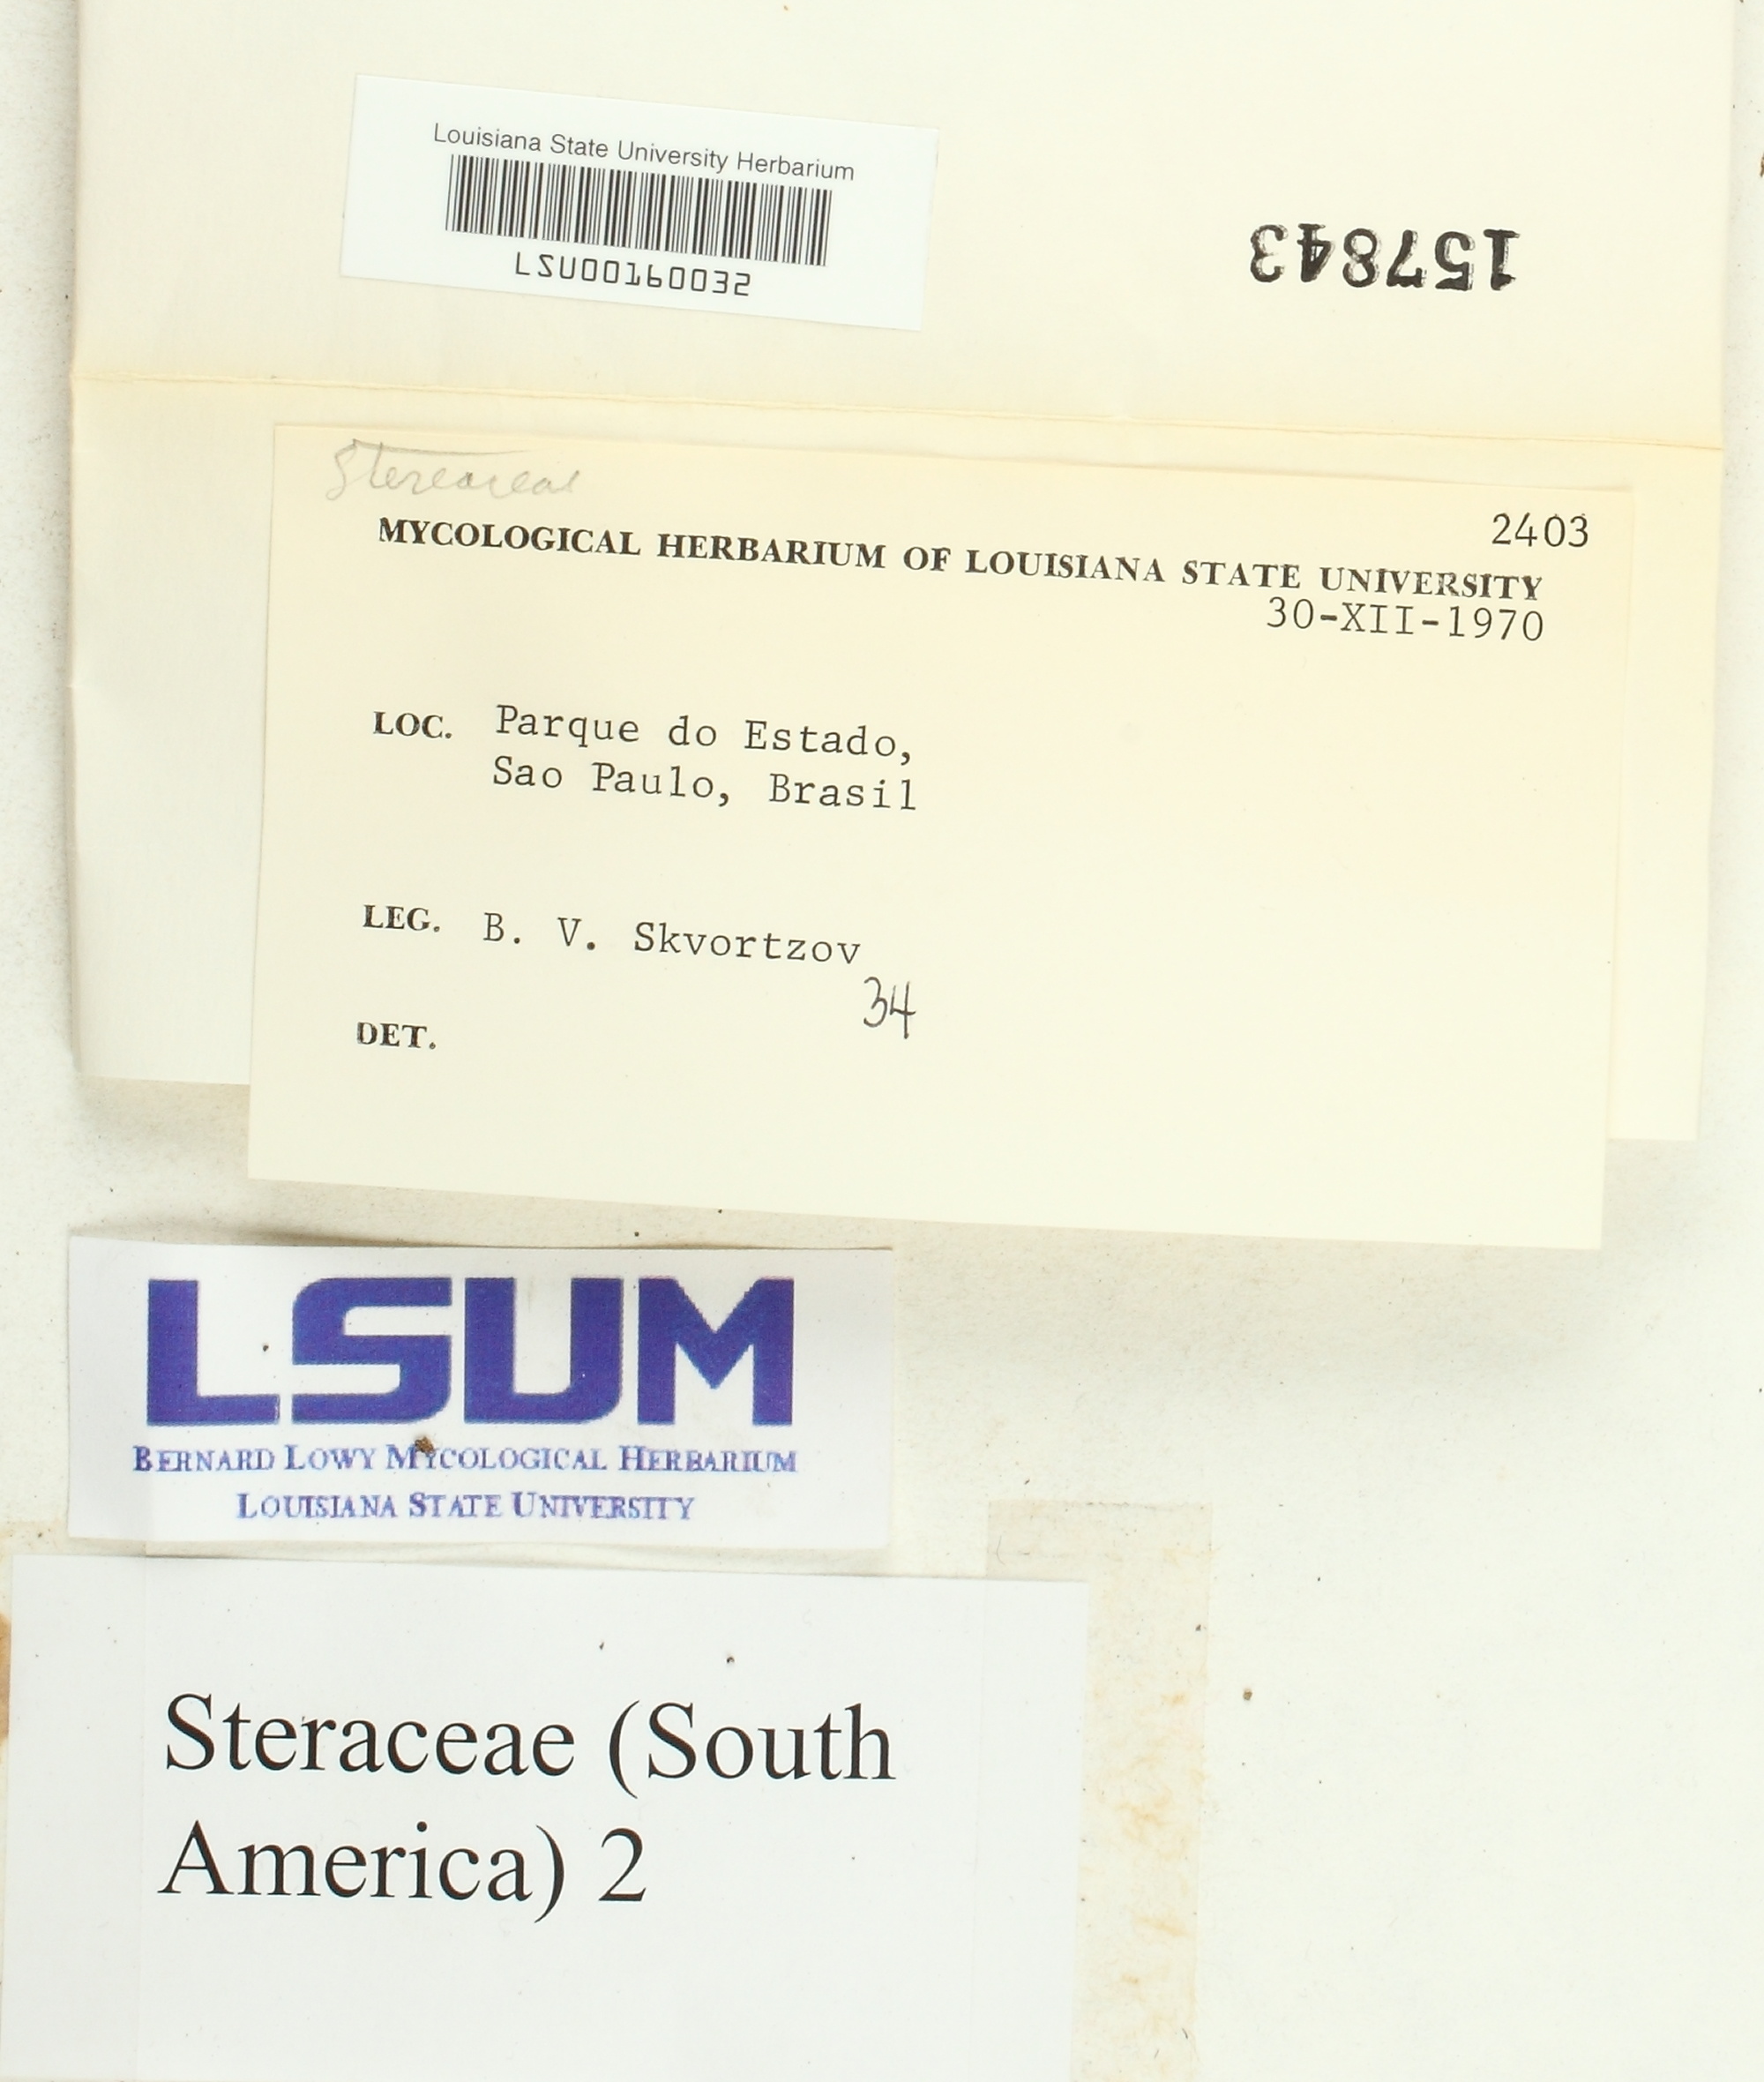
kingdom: Fungi
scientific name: Fungi
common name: Fungi
